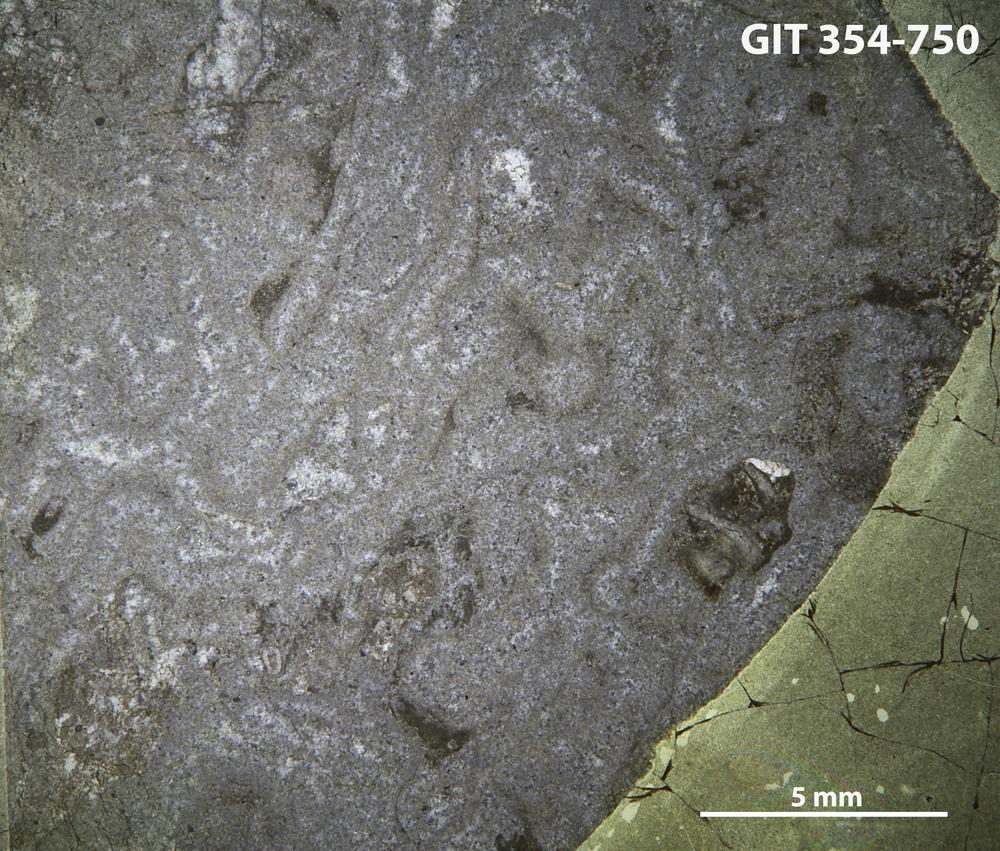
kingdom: Animalia
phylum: Porifera
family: Stromatoporellidae
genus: Simplexodictyon
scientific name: Simplexodictyon
